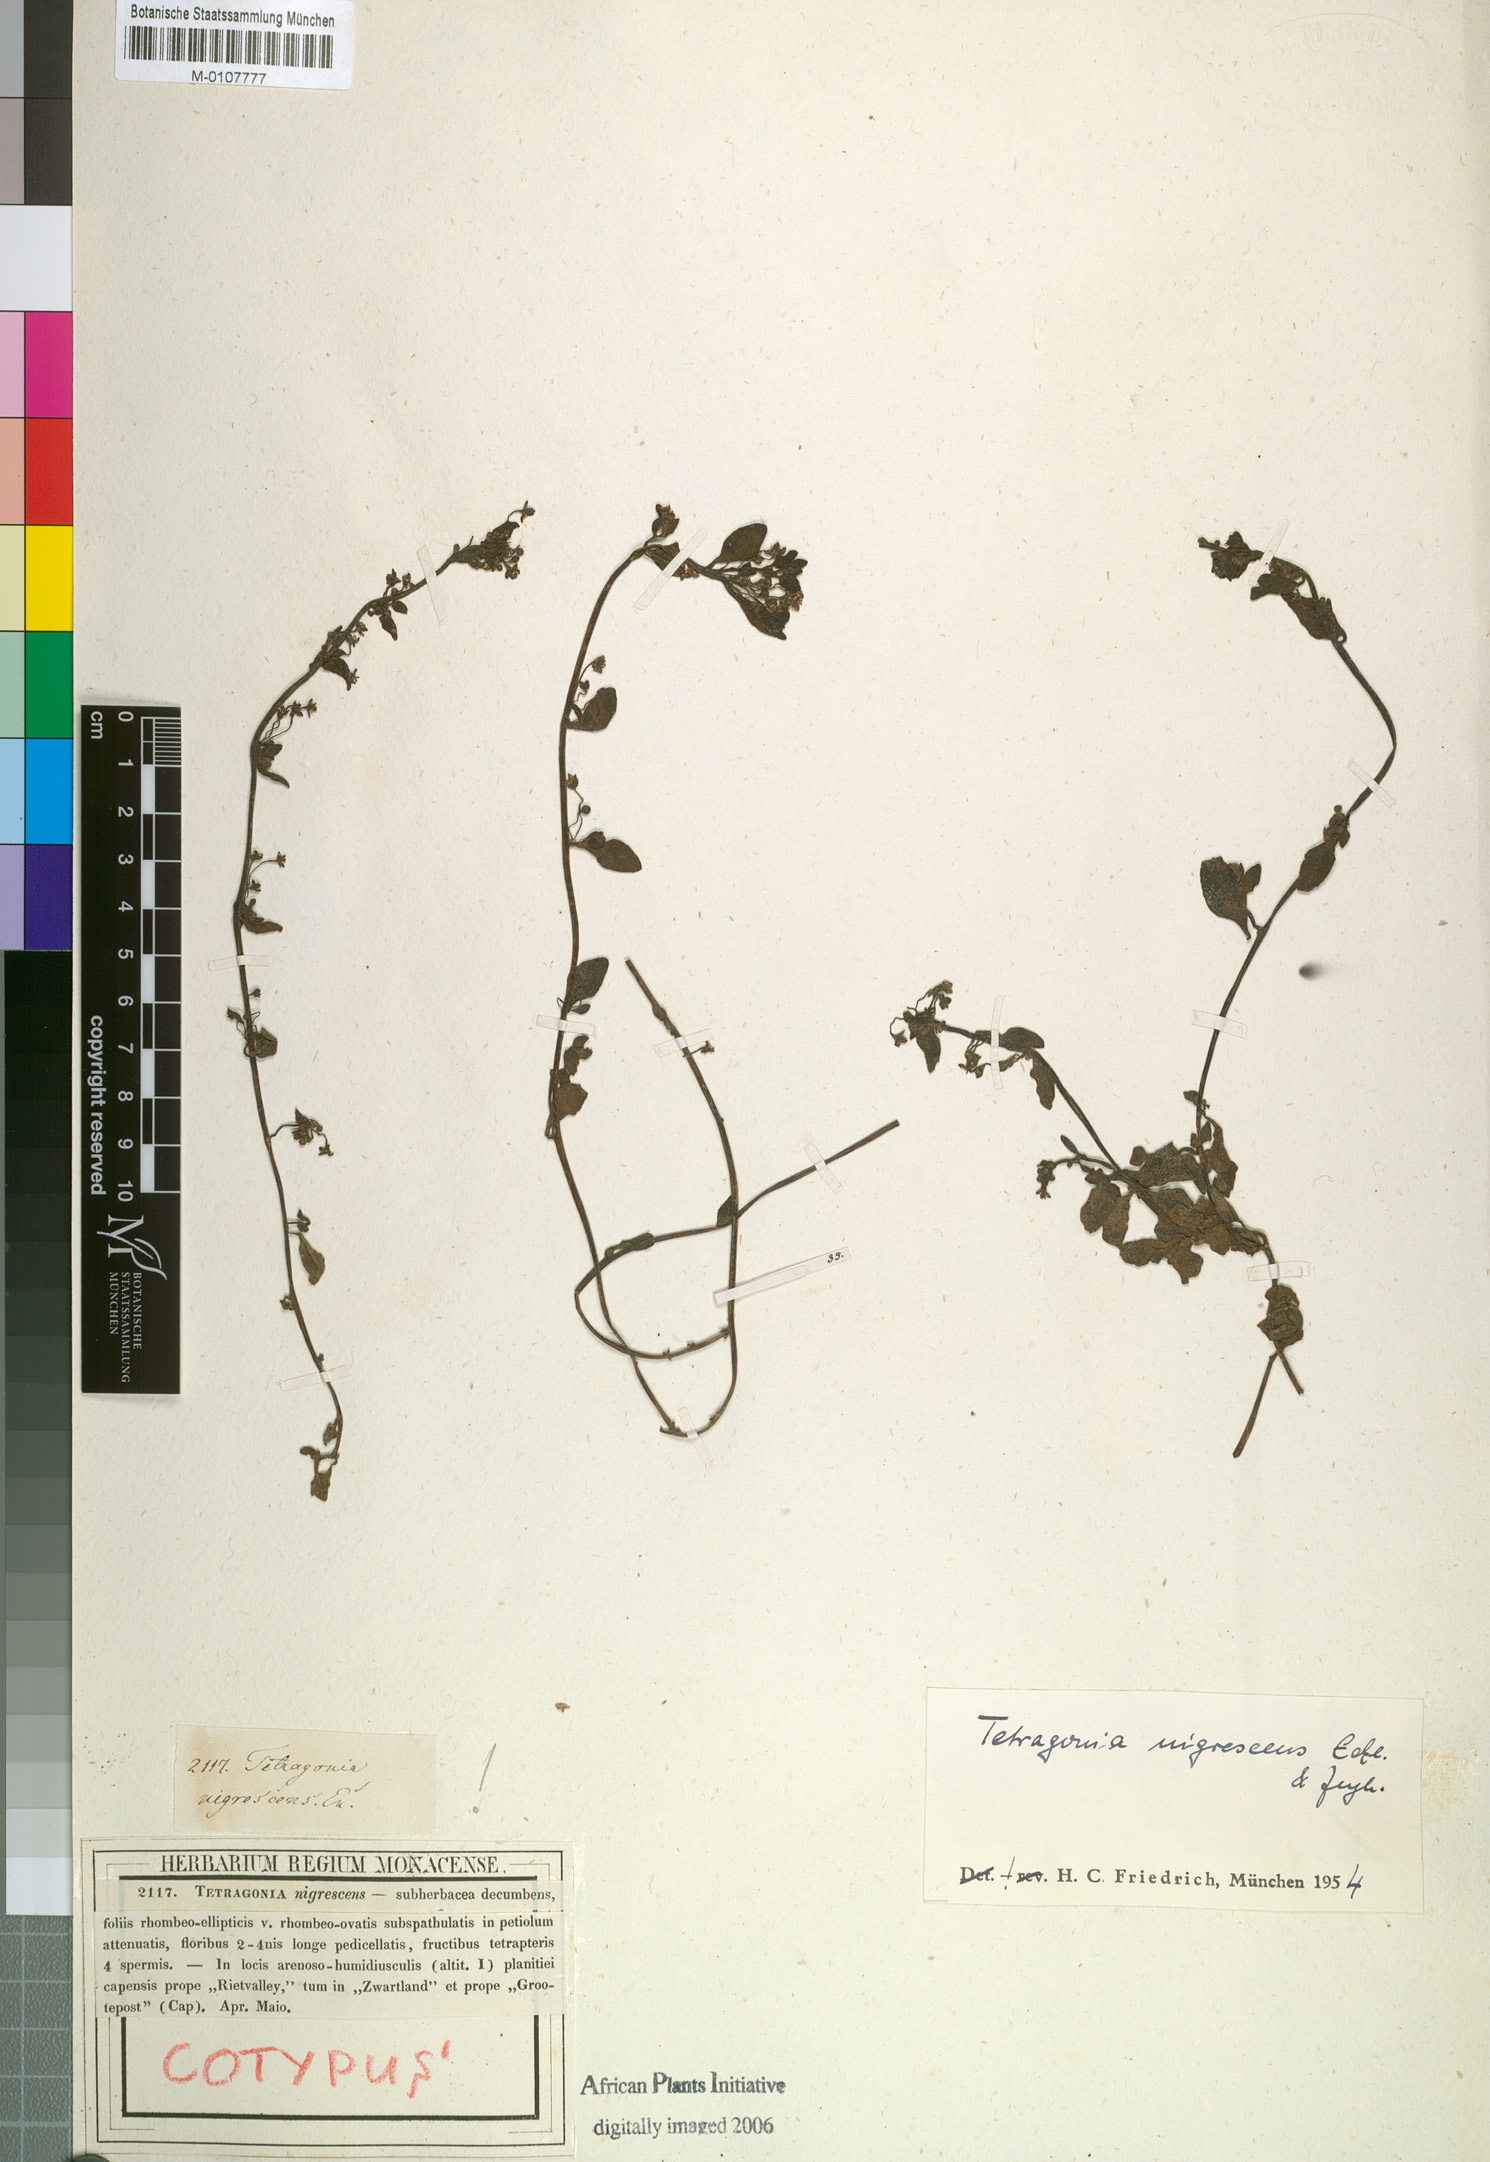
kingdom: Plantae
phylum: Tracheophyta
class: Magnoliopsida
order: Caryophyllales
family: Aizoaceae
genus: Tetragonia
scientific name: Tetragonia nigrescens
